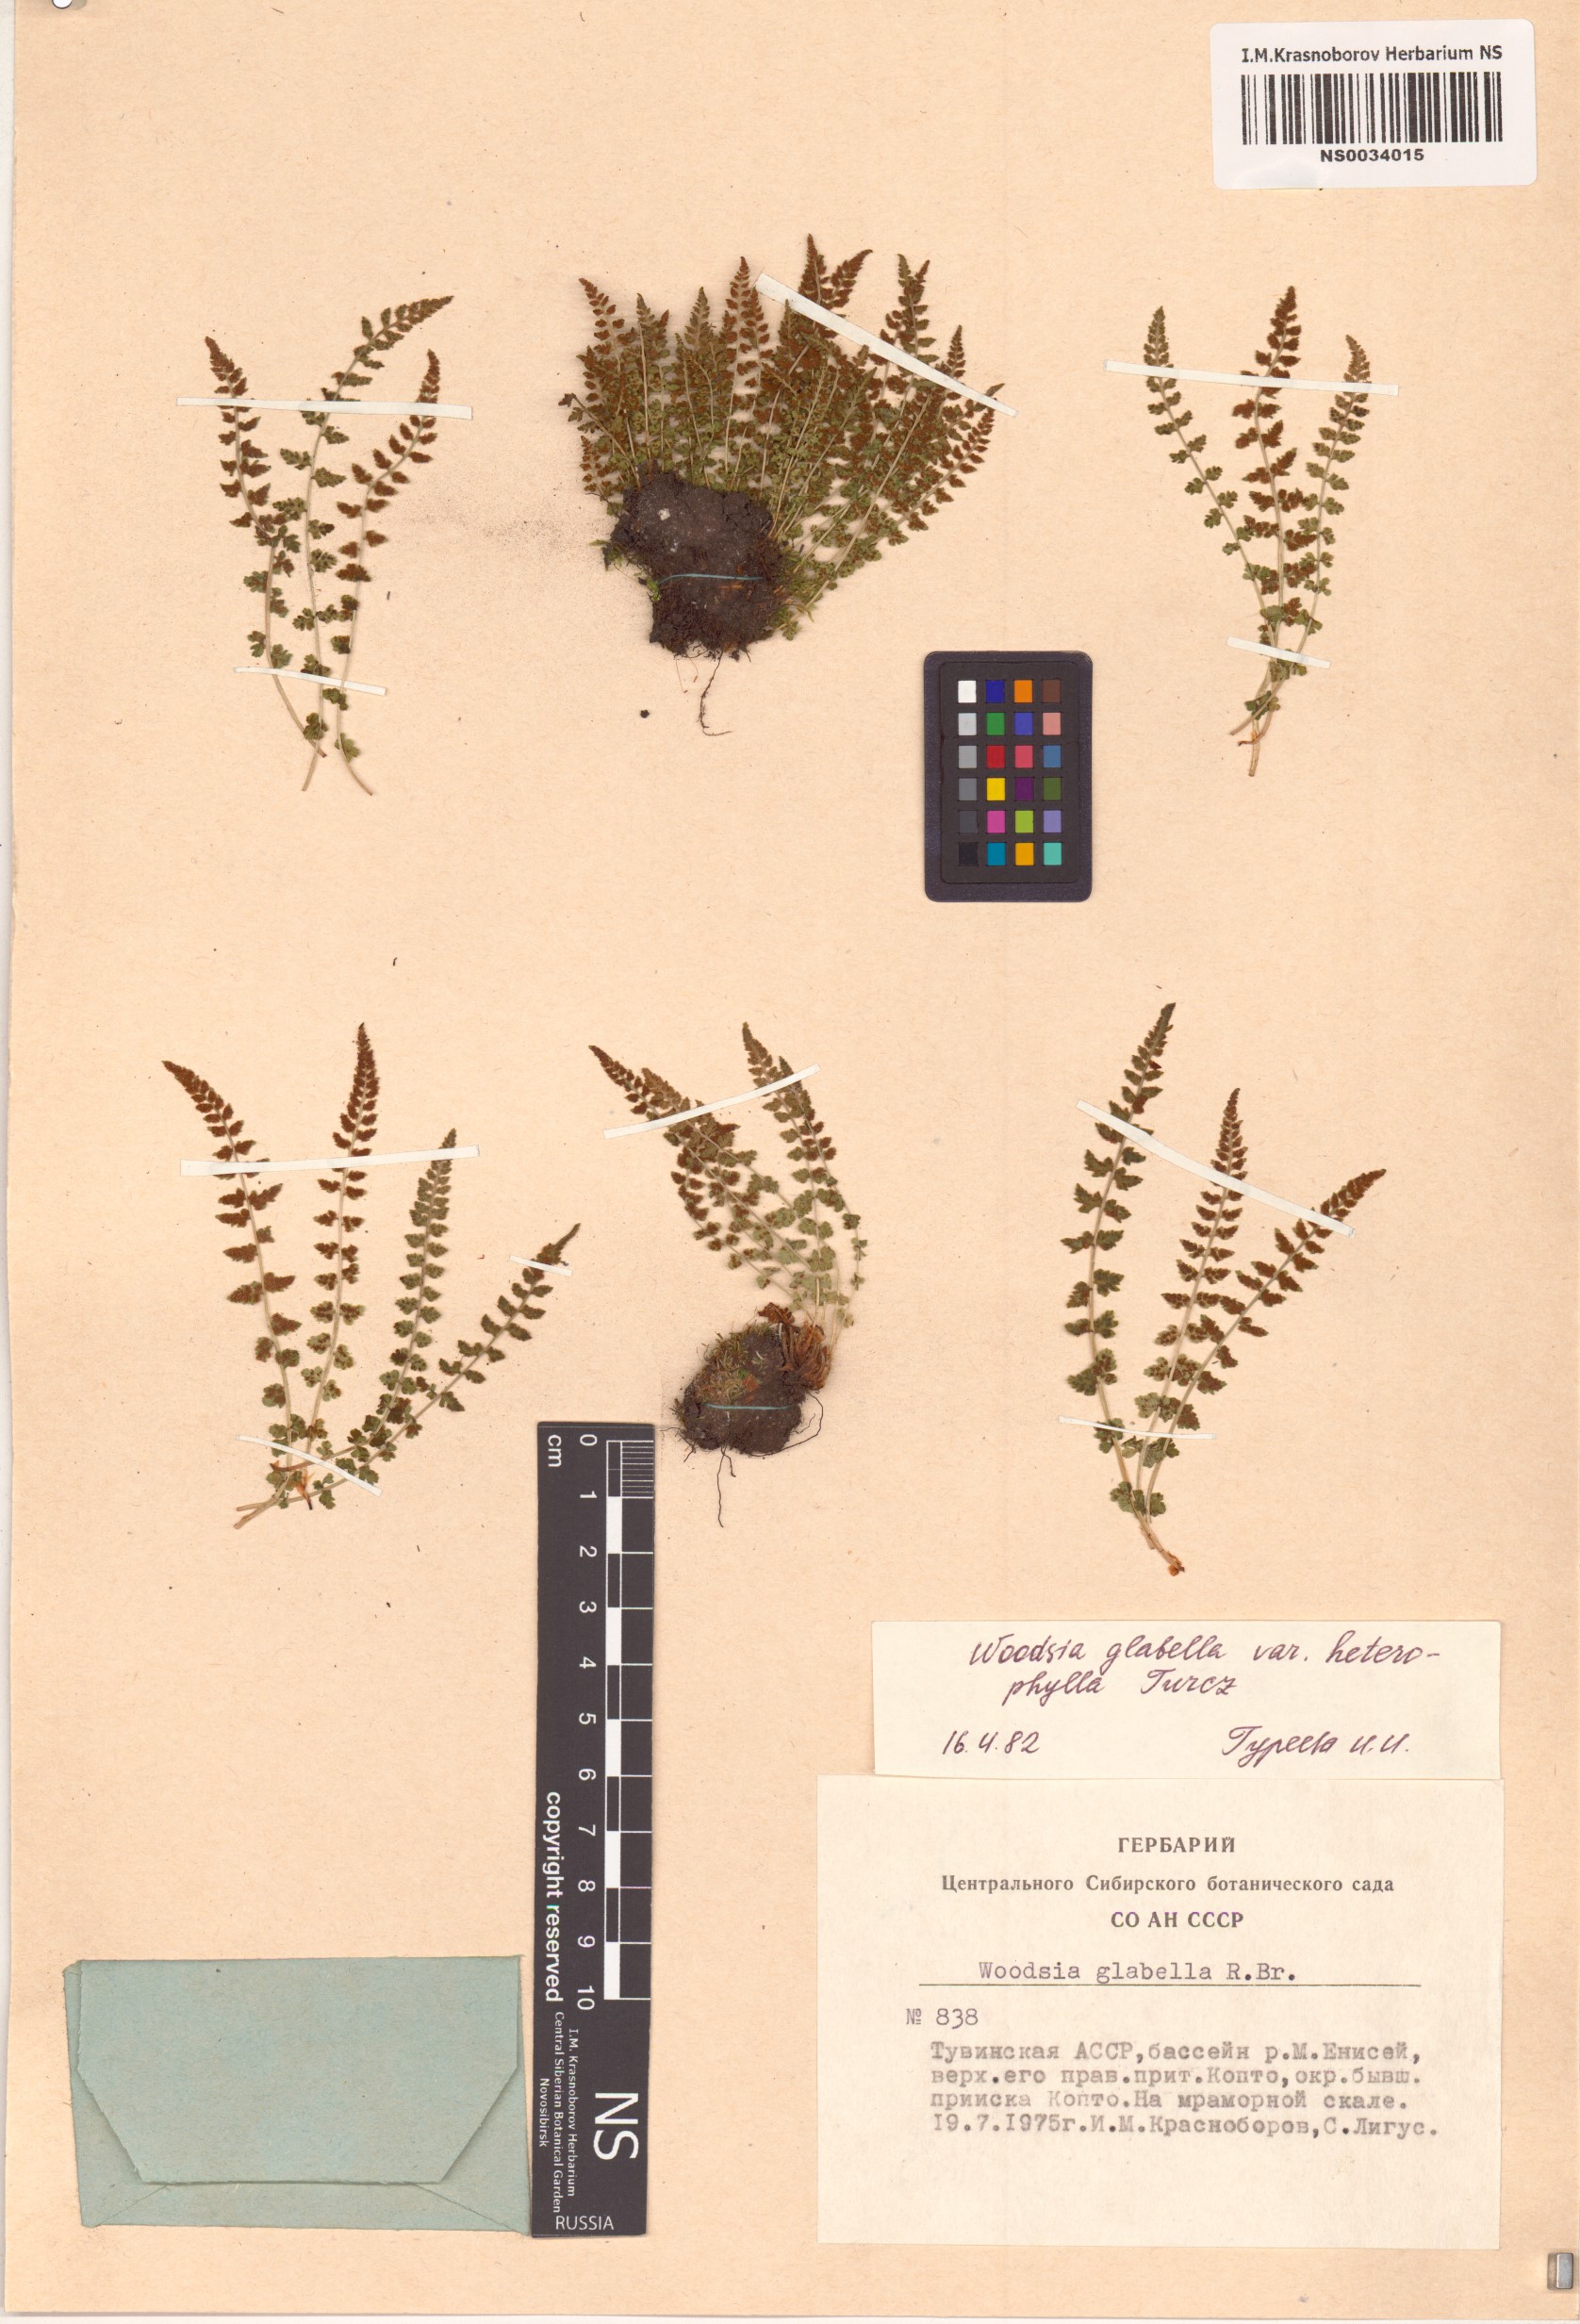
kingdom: Plantae
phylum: Tracheophyta
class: Polypodiopsida
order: Polypodiales
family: Woodsiaceae
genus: Woodsia
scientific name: Woodsia pulchella
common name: Graceful woodsia
